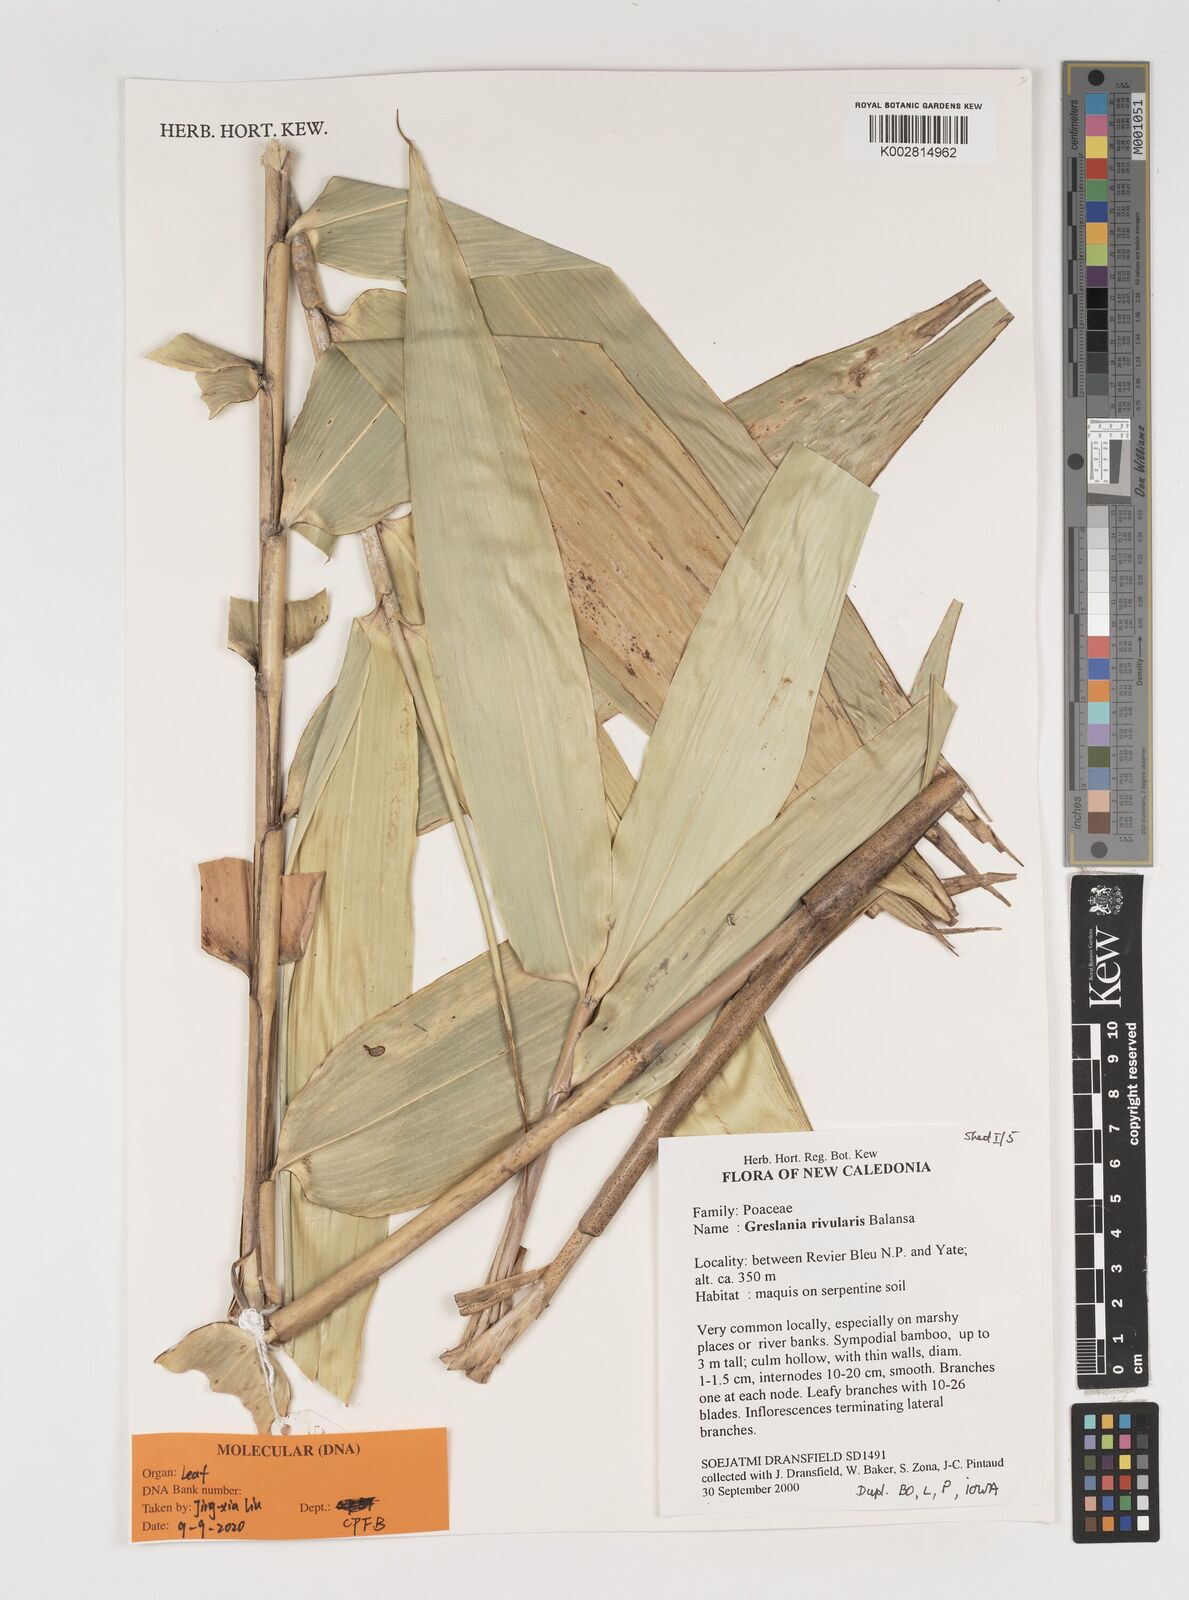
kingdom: Plantae
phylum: Tracheophyta
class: Liliopsida
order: Poales
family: Poaceae
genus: Greslania
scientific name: Greslania rivularis
